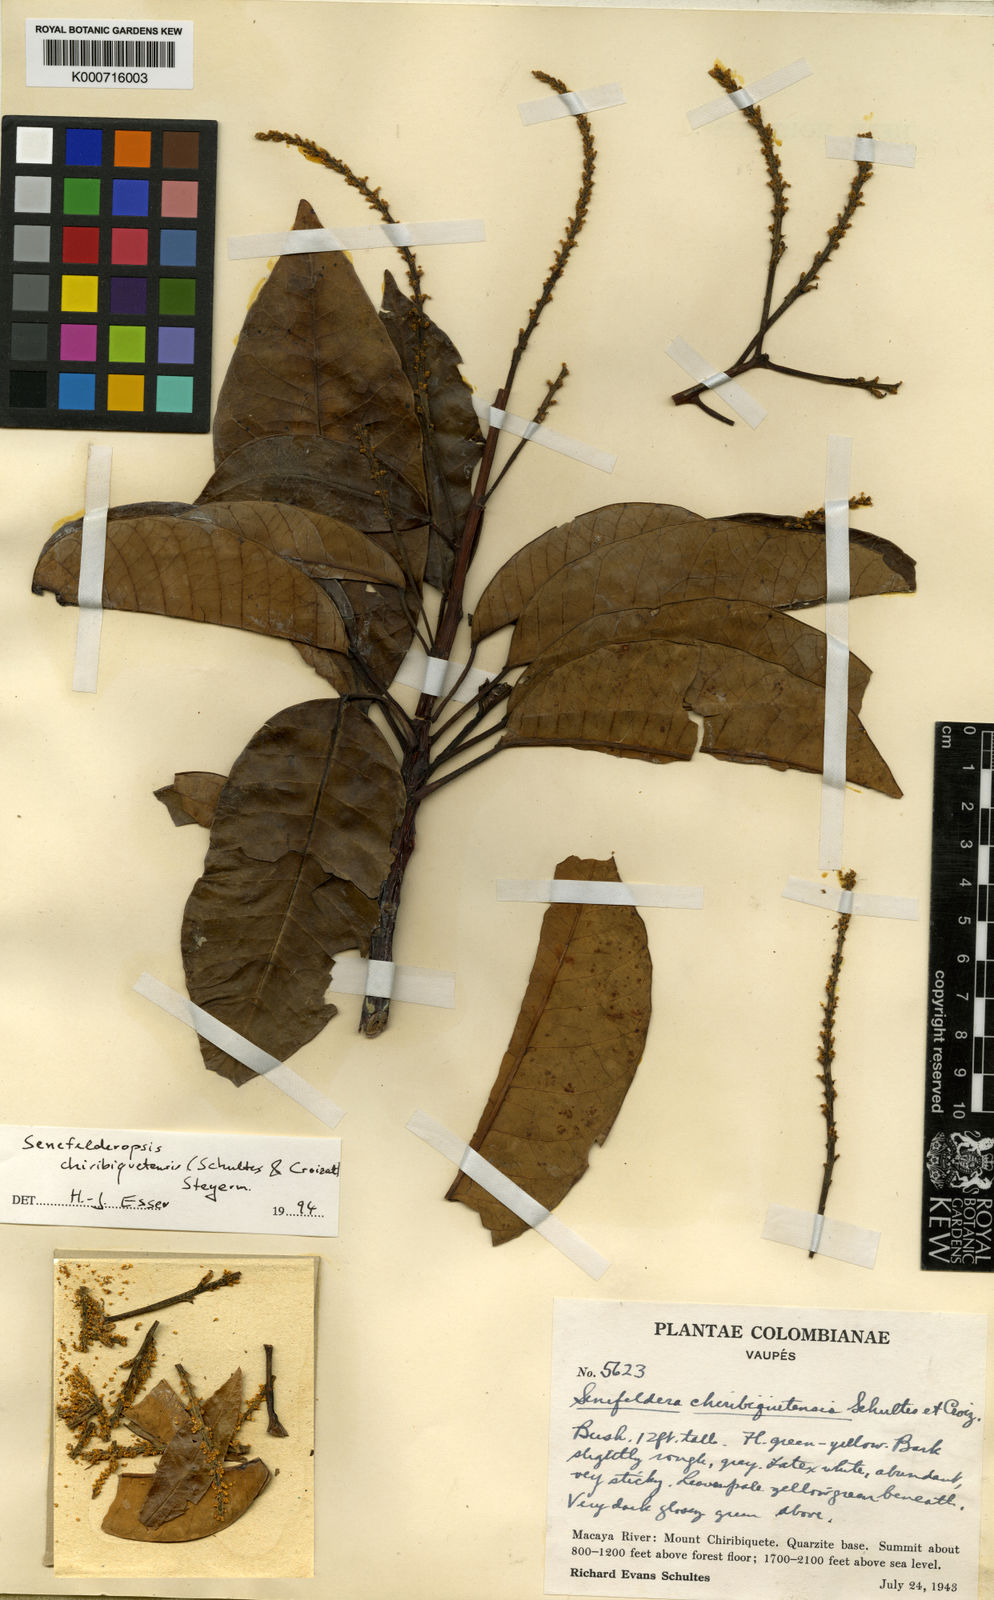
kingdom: Plantae
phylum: Tracheophyta
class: Magnoliopsida
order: Malpighiales
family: Euphorbiaceae
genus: Senefelderopsis
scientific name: Senefelderopsis chiribiquetensis
